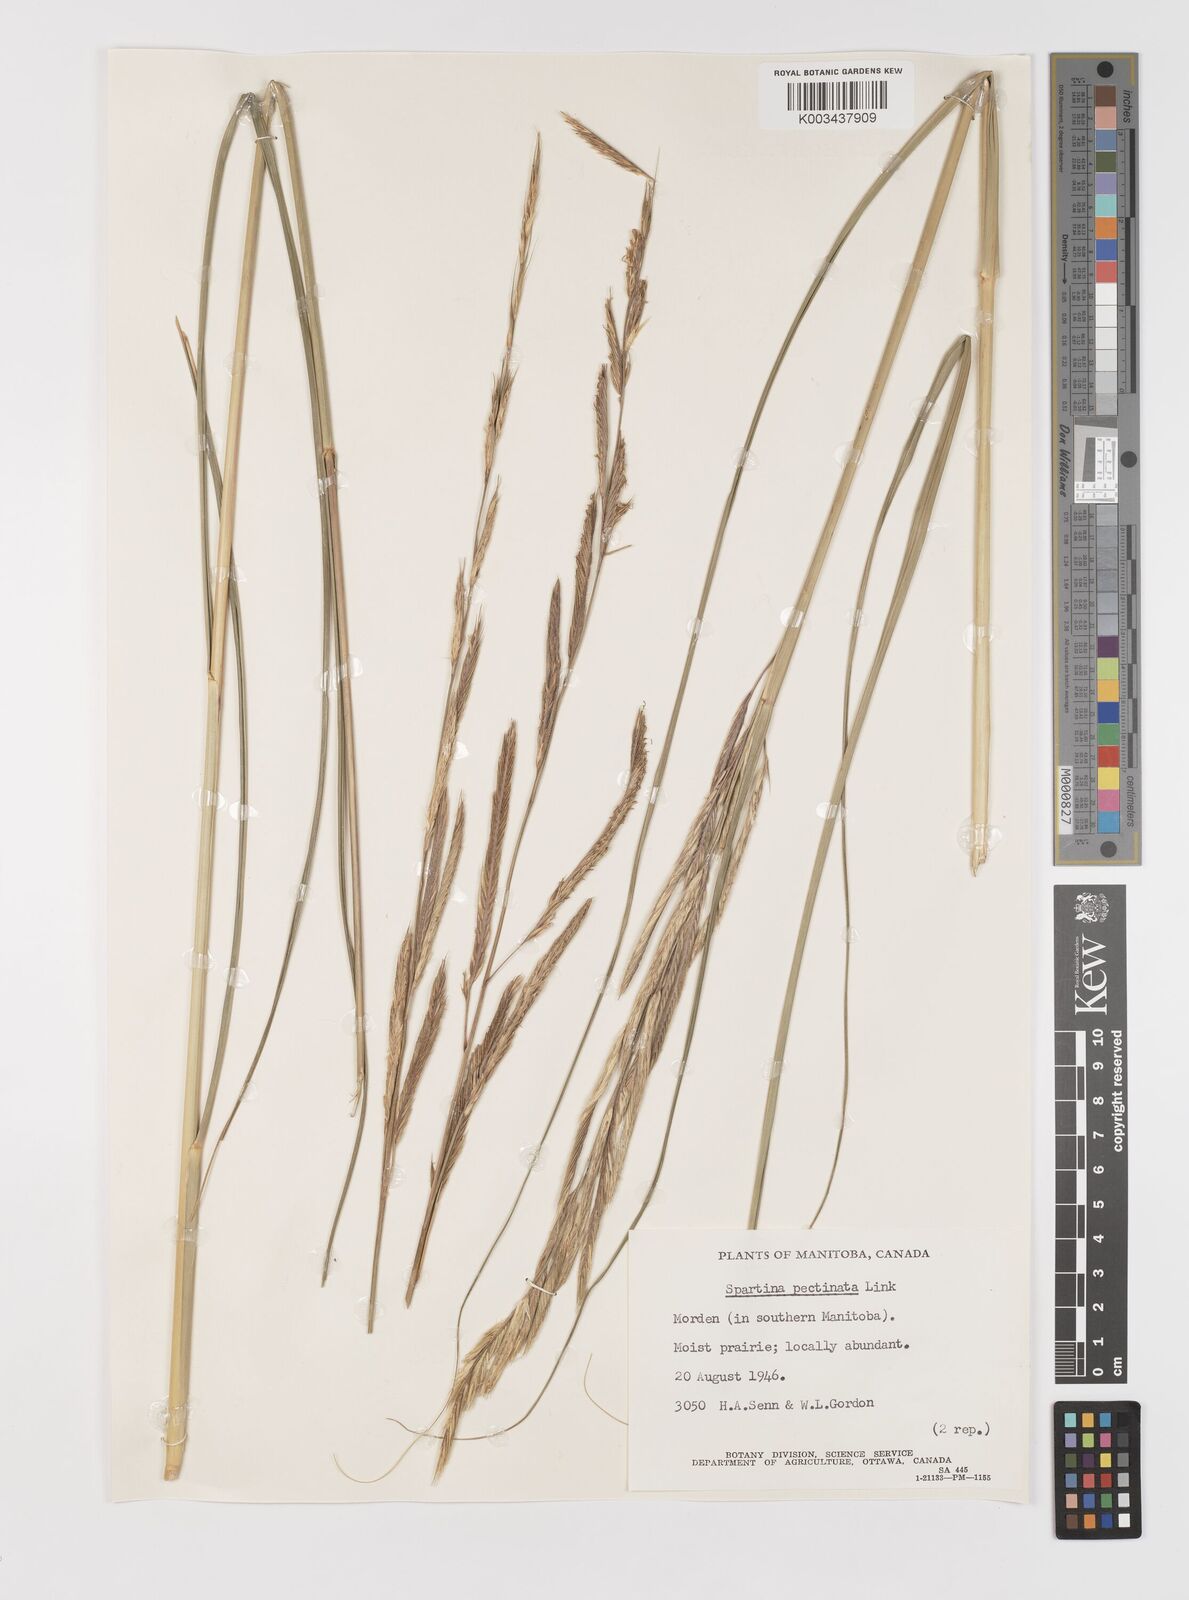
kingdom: Plantae
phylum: Tracheophyta
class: Liliopsida
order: Poales
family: Poaceae
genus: Sporobolus
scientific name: Sporobolus michauxianus
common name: Freshwater cordgrass
